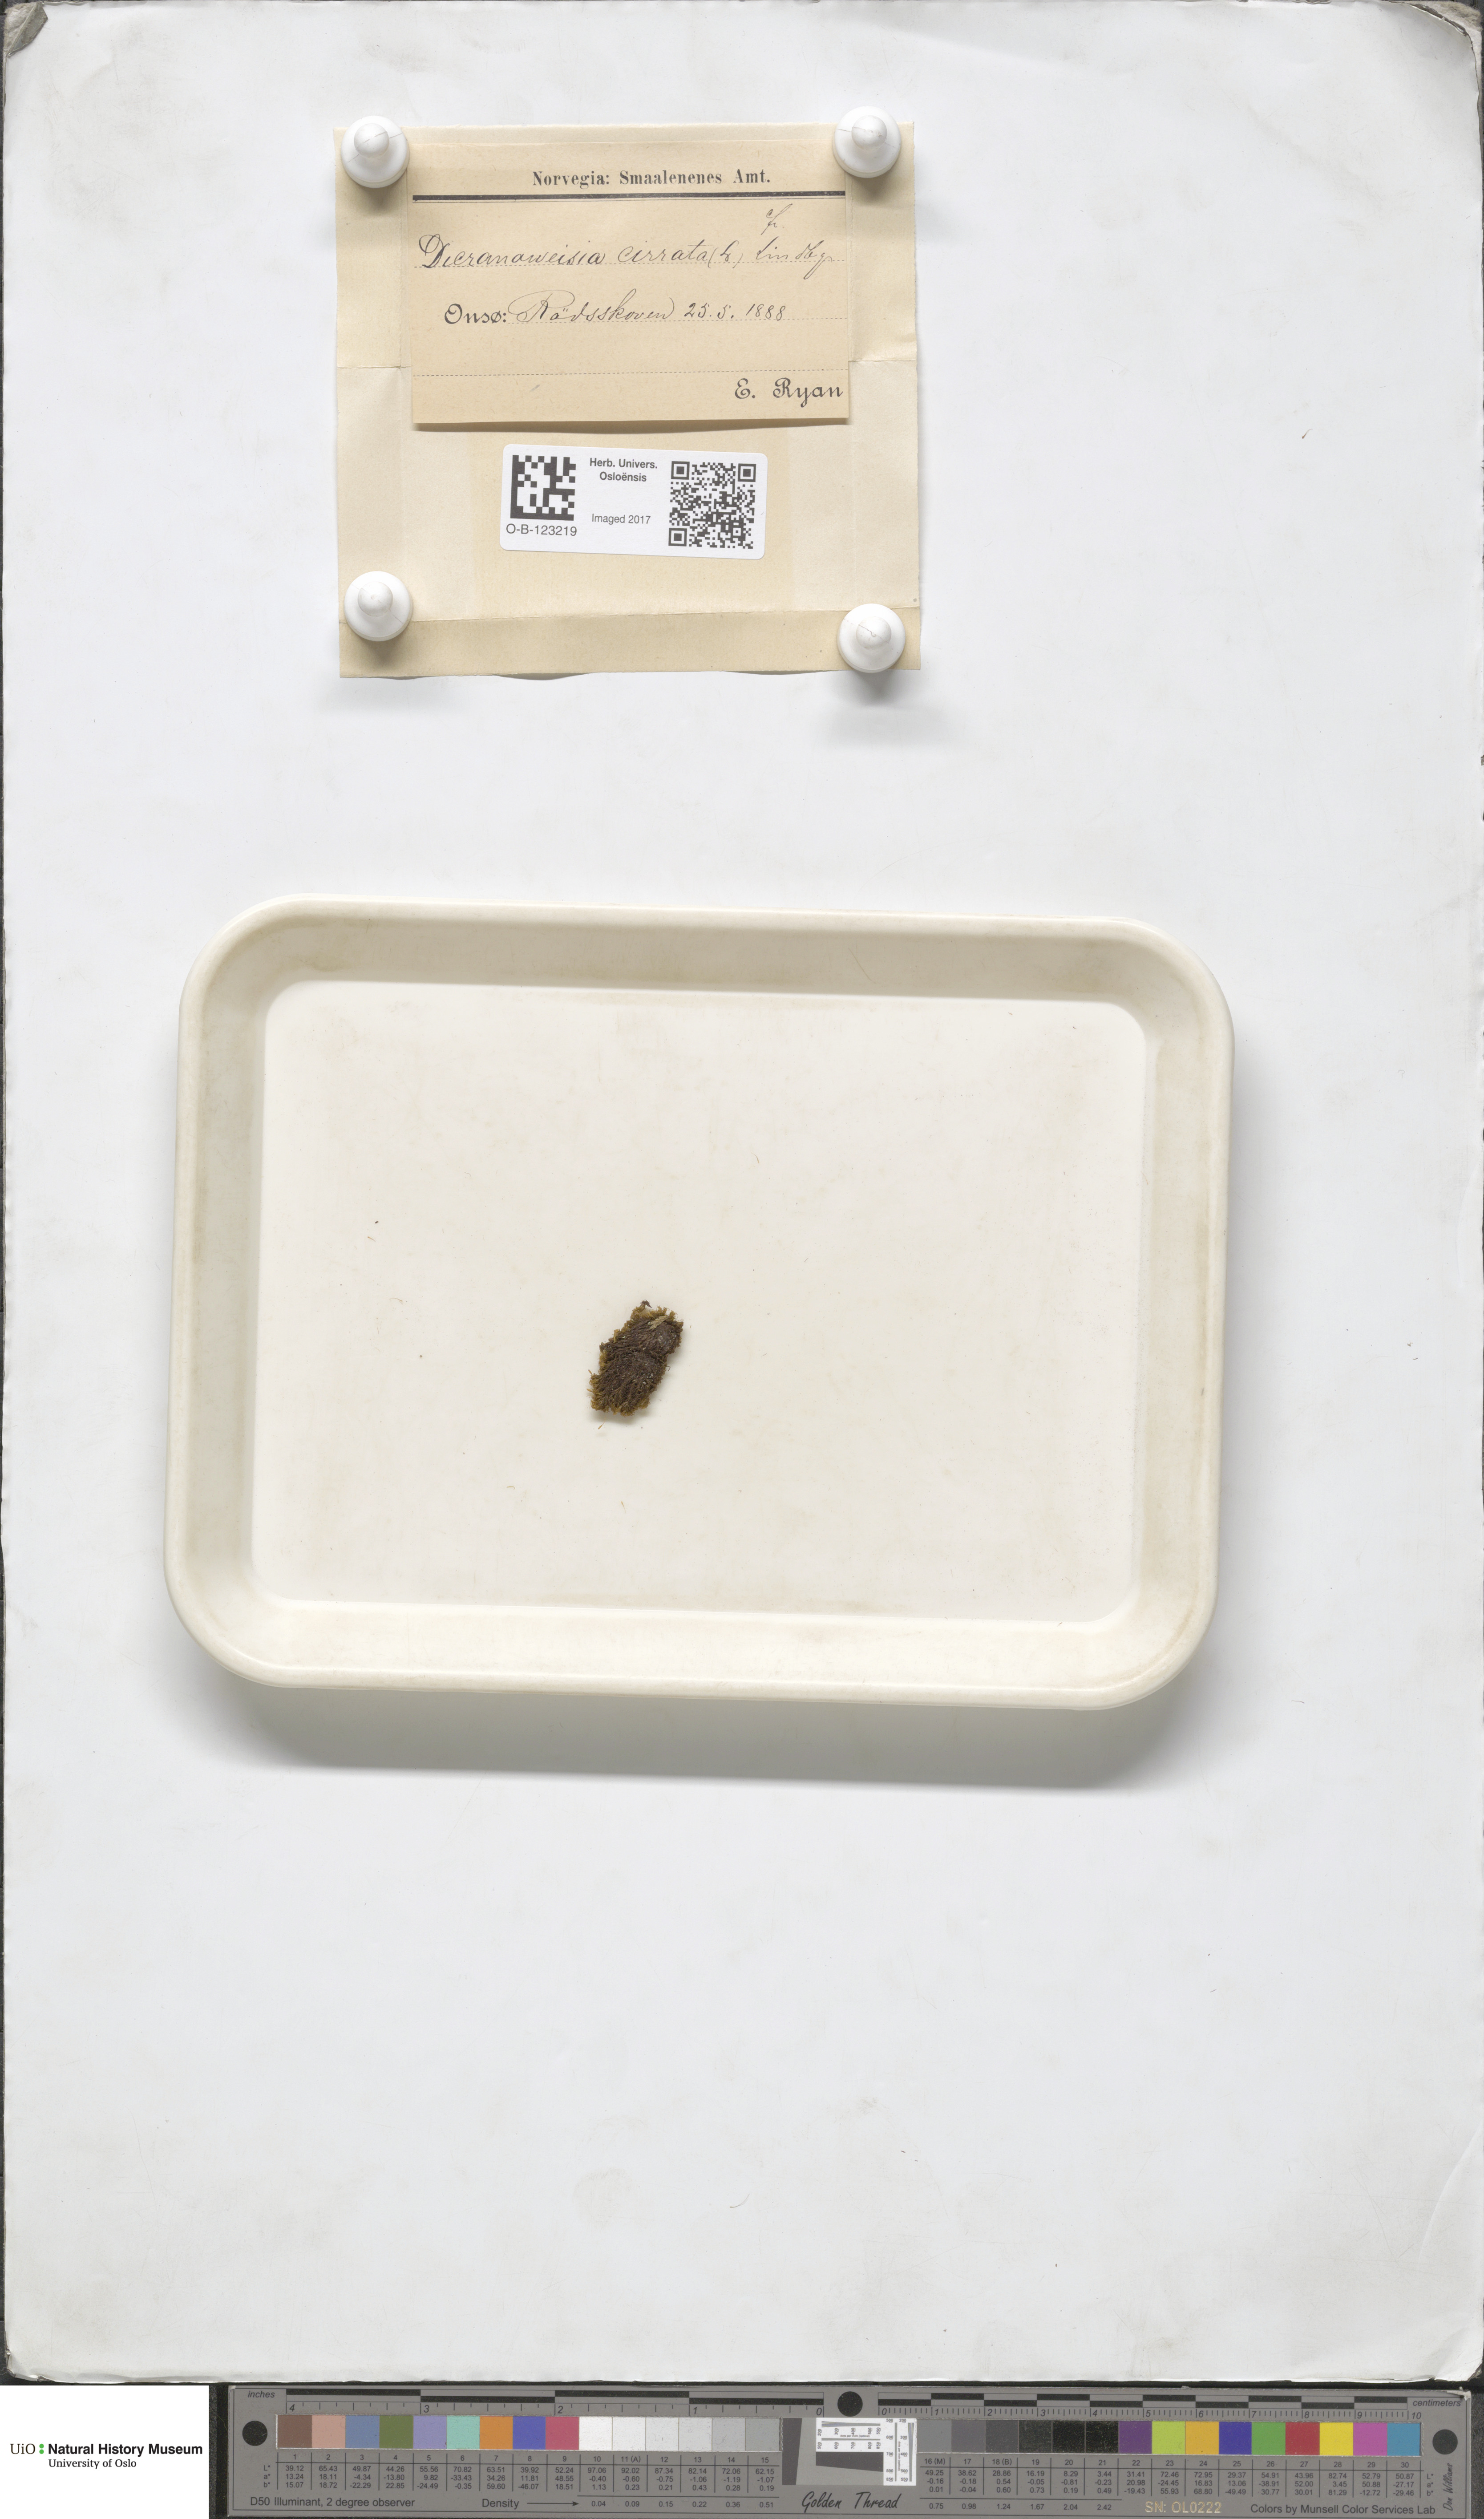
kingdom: Plantae
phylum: Bryophyta
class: Bryopsida
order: Dicranales
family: Rhabdoweisiaceae
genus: Dicranoweisia
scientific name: Dicranoweisia cirrata
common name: Common pincushion
